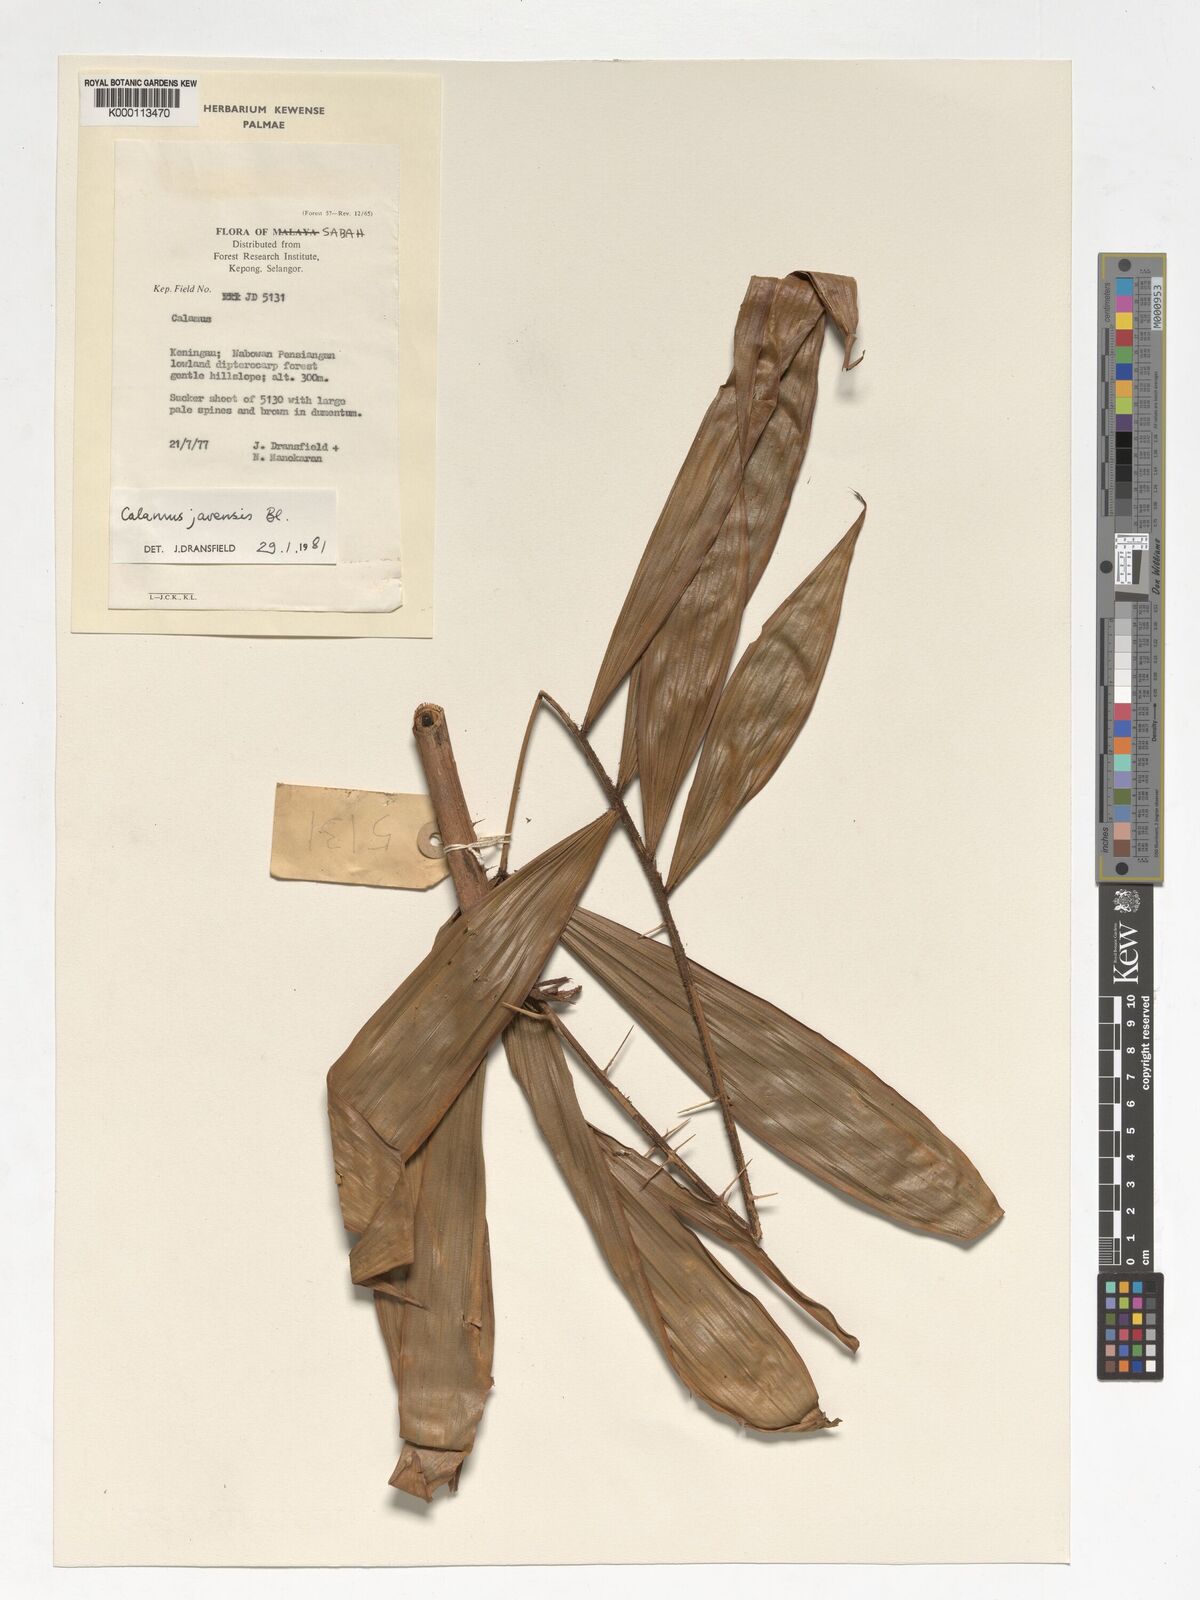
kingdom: Plantae
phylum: Tracheophyta
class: Liliopsida
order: Arecales
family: Arecaceae
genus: Calamus
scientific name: Calamus javensis
